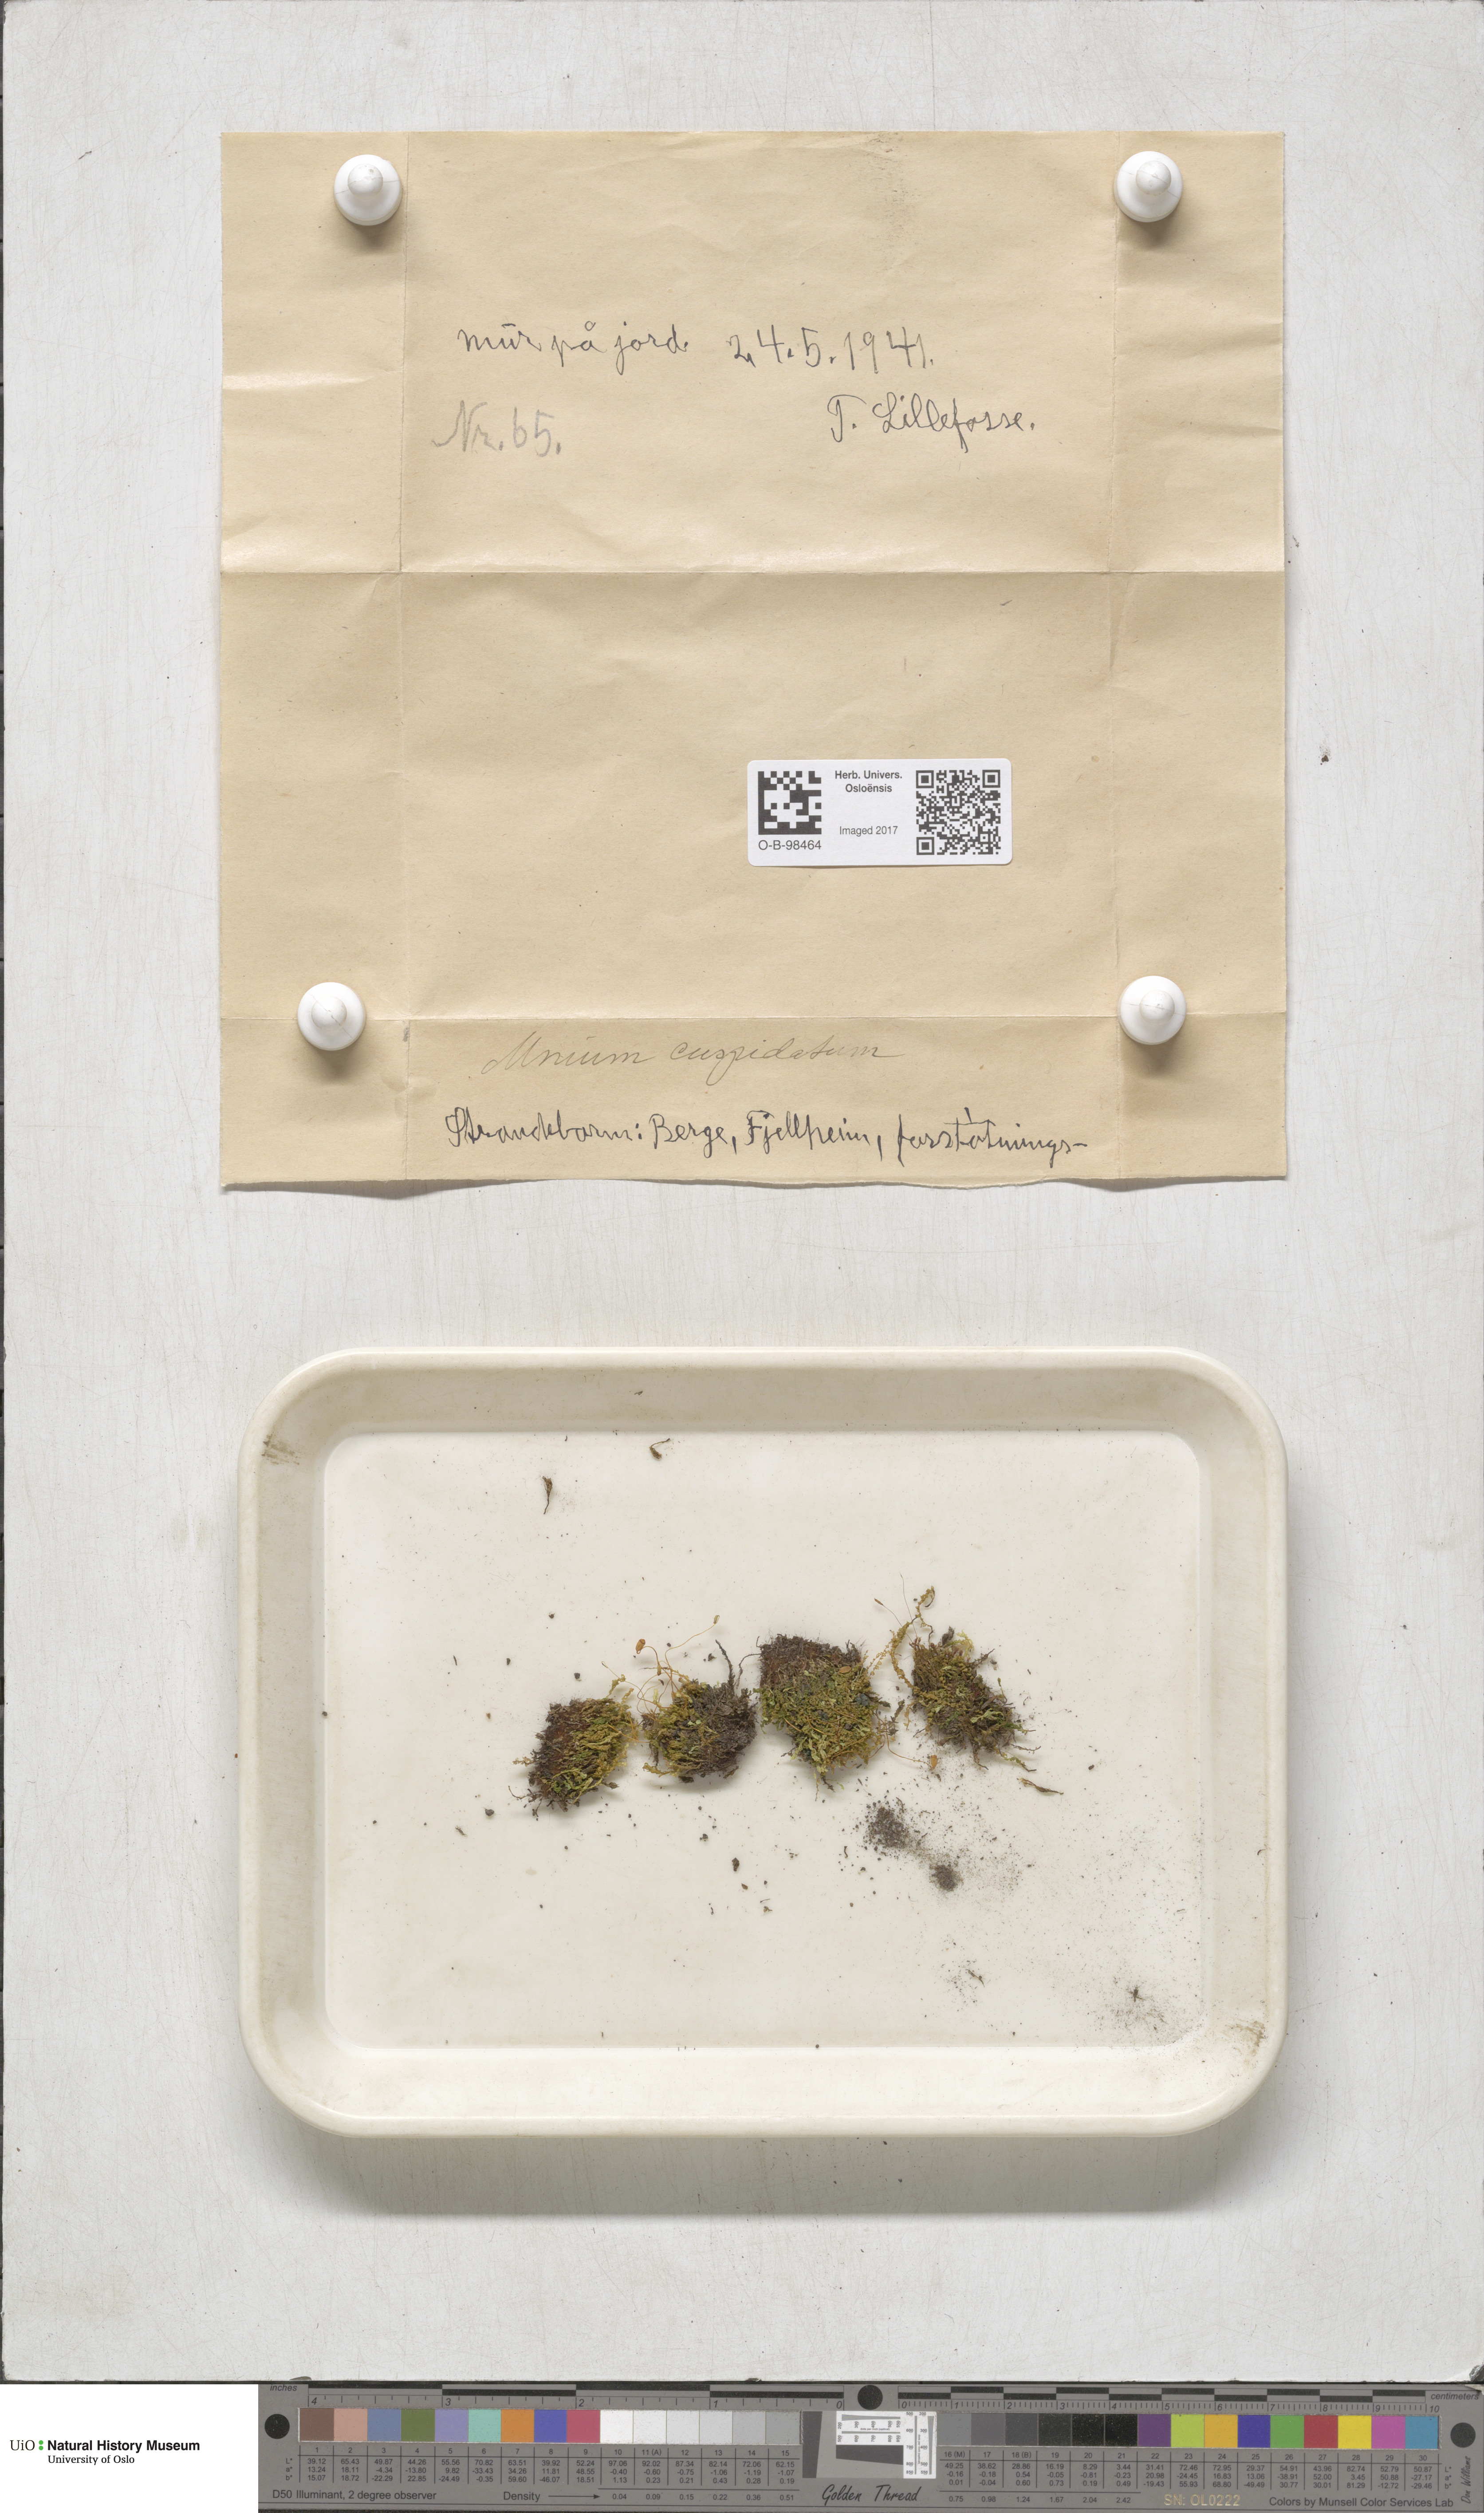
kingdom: Plantae
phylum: Bryophyta
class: Bryopsida
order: Bryales
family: Mniaceae
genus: Plagiomnium
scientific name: Plagiomnium cuspidatum
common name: Woodsy leafy moss
